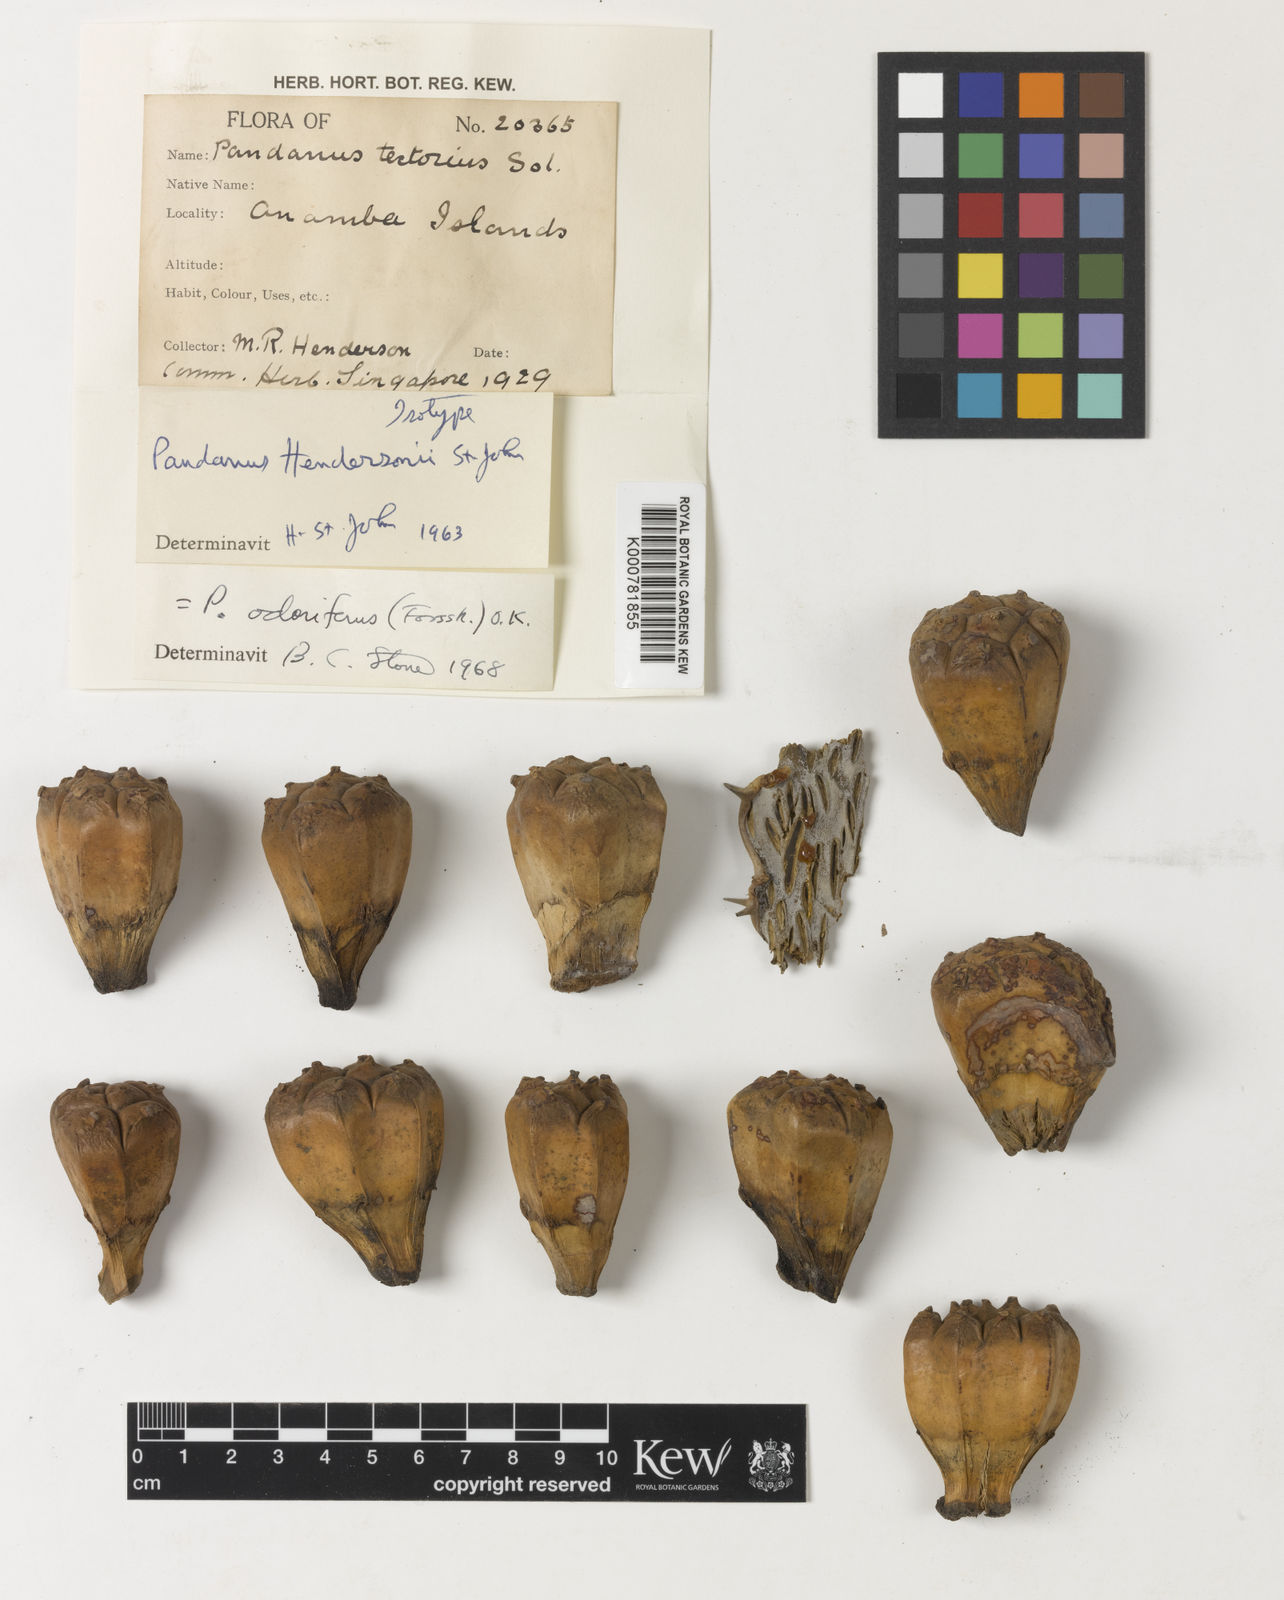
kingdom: Plantae
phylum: Tracheophyta
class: Liliopsida
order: Pandanales
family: Pandanaceae
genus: Pandanus
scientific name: Pandanus
